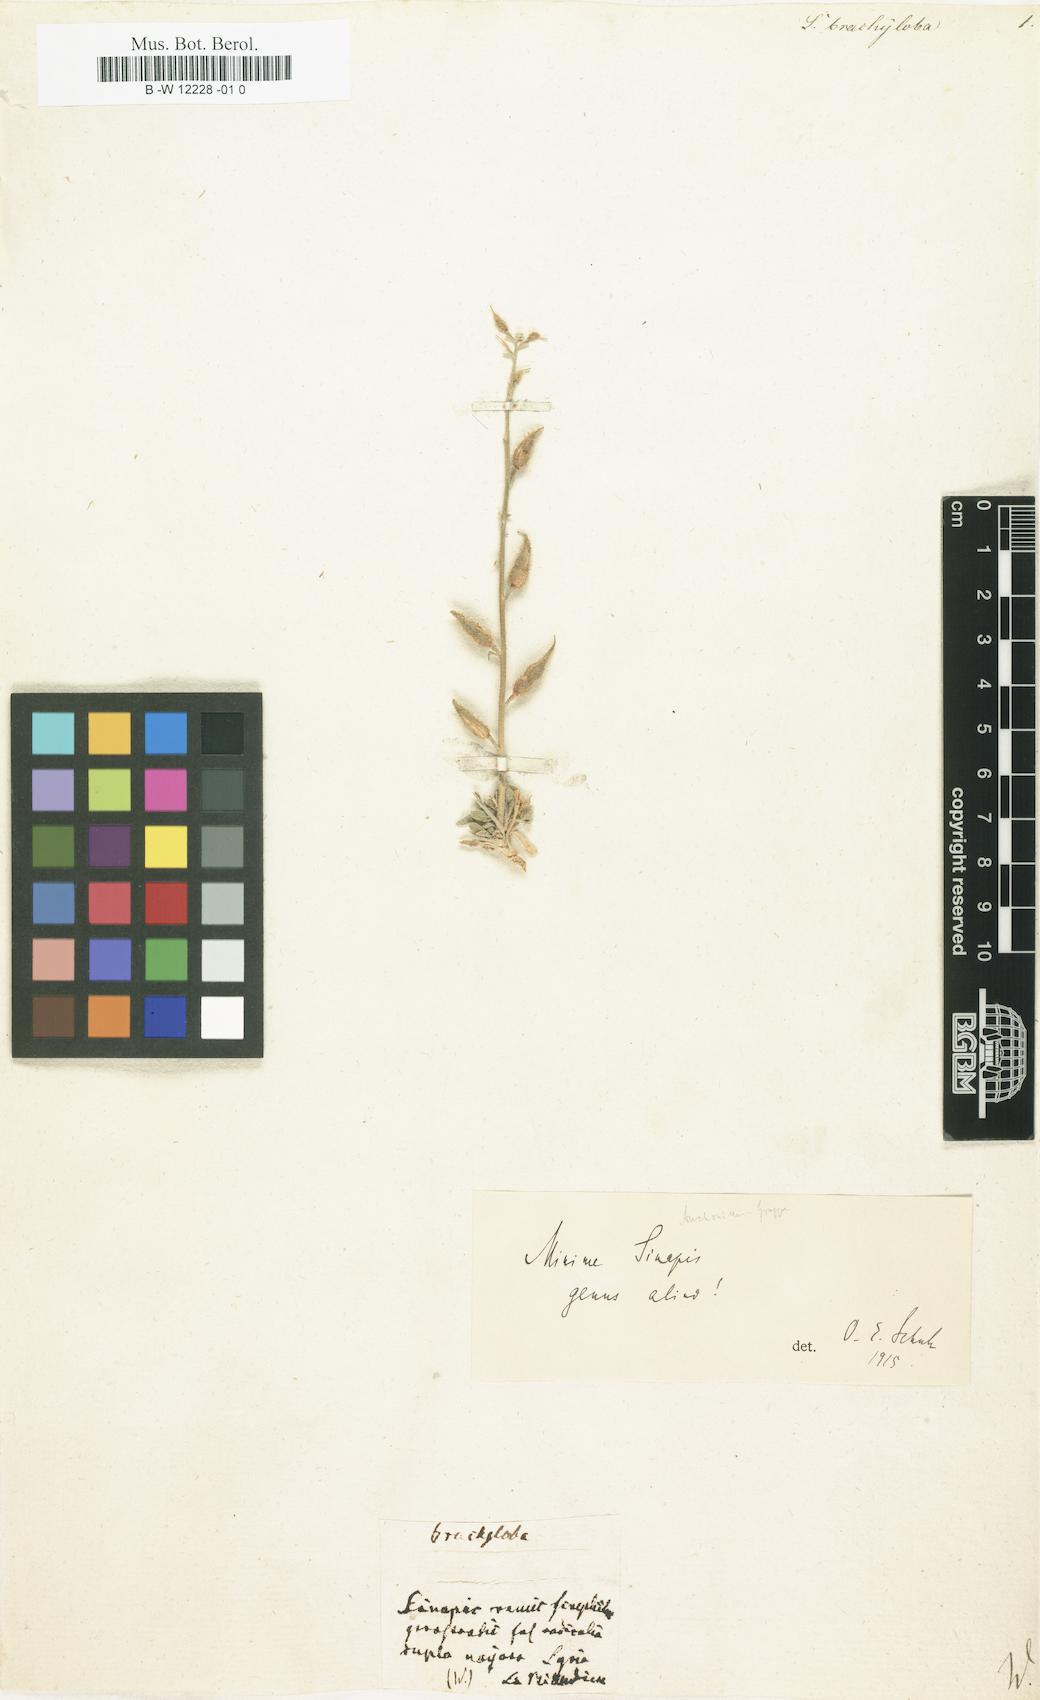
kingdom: Plantae
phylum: Tracheophyta
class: Magnoliopsida
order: Brassicales
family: Brassicaceae
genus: Sinapis
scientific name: Sinapis
